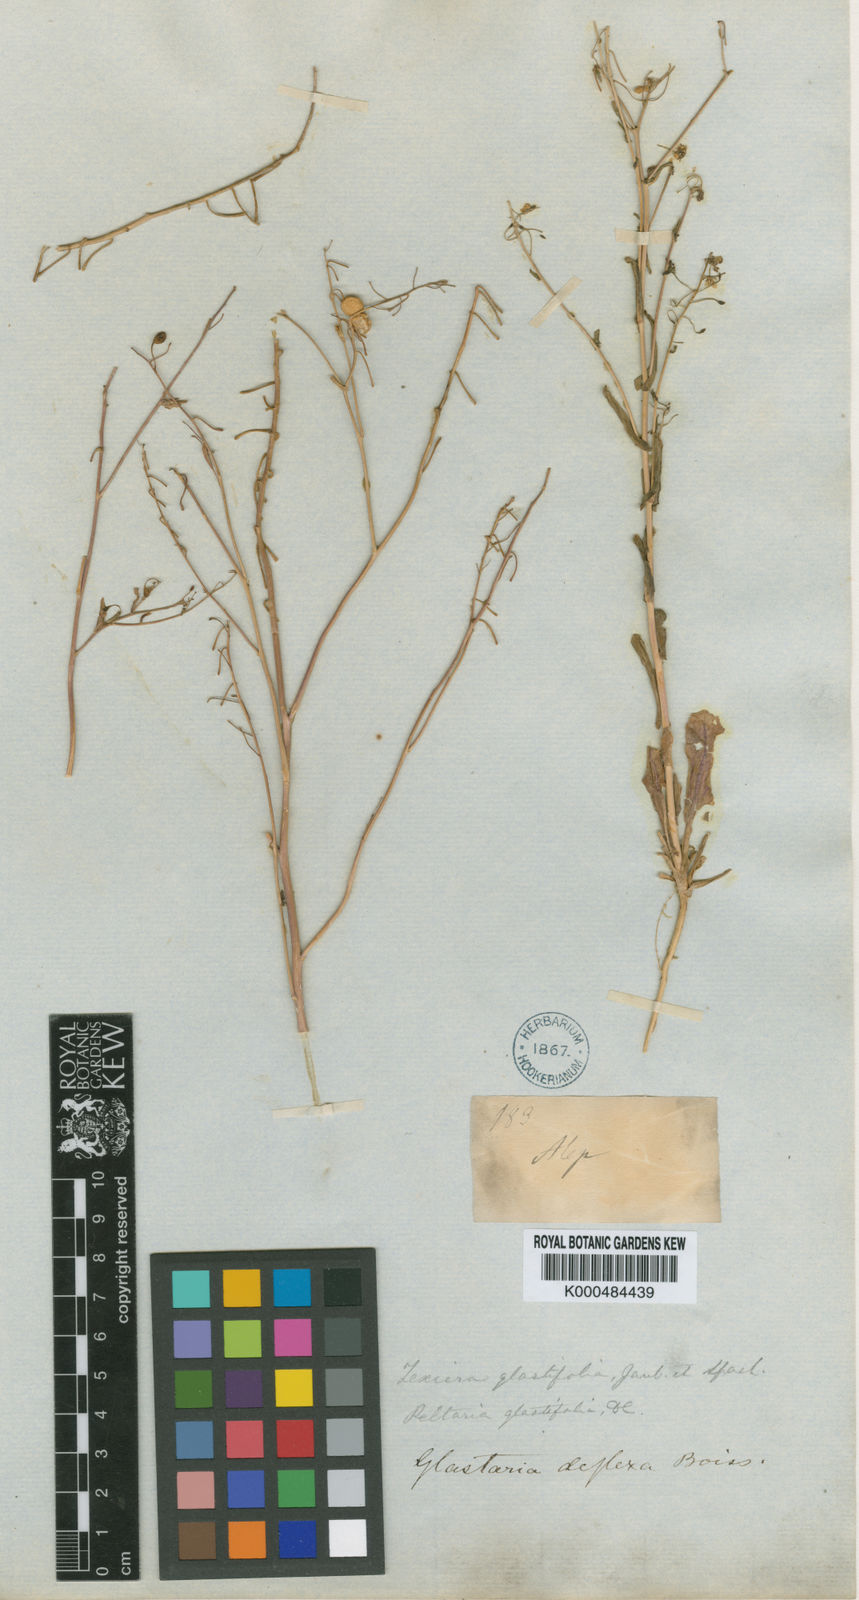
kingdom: Plantae
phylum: Tracheophyta
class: Magnoliopsida
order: Brassicales
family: Brassicaceae
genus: Glastaria
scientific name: Glastaria glastifolia
